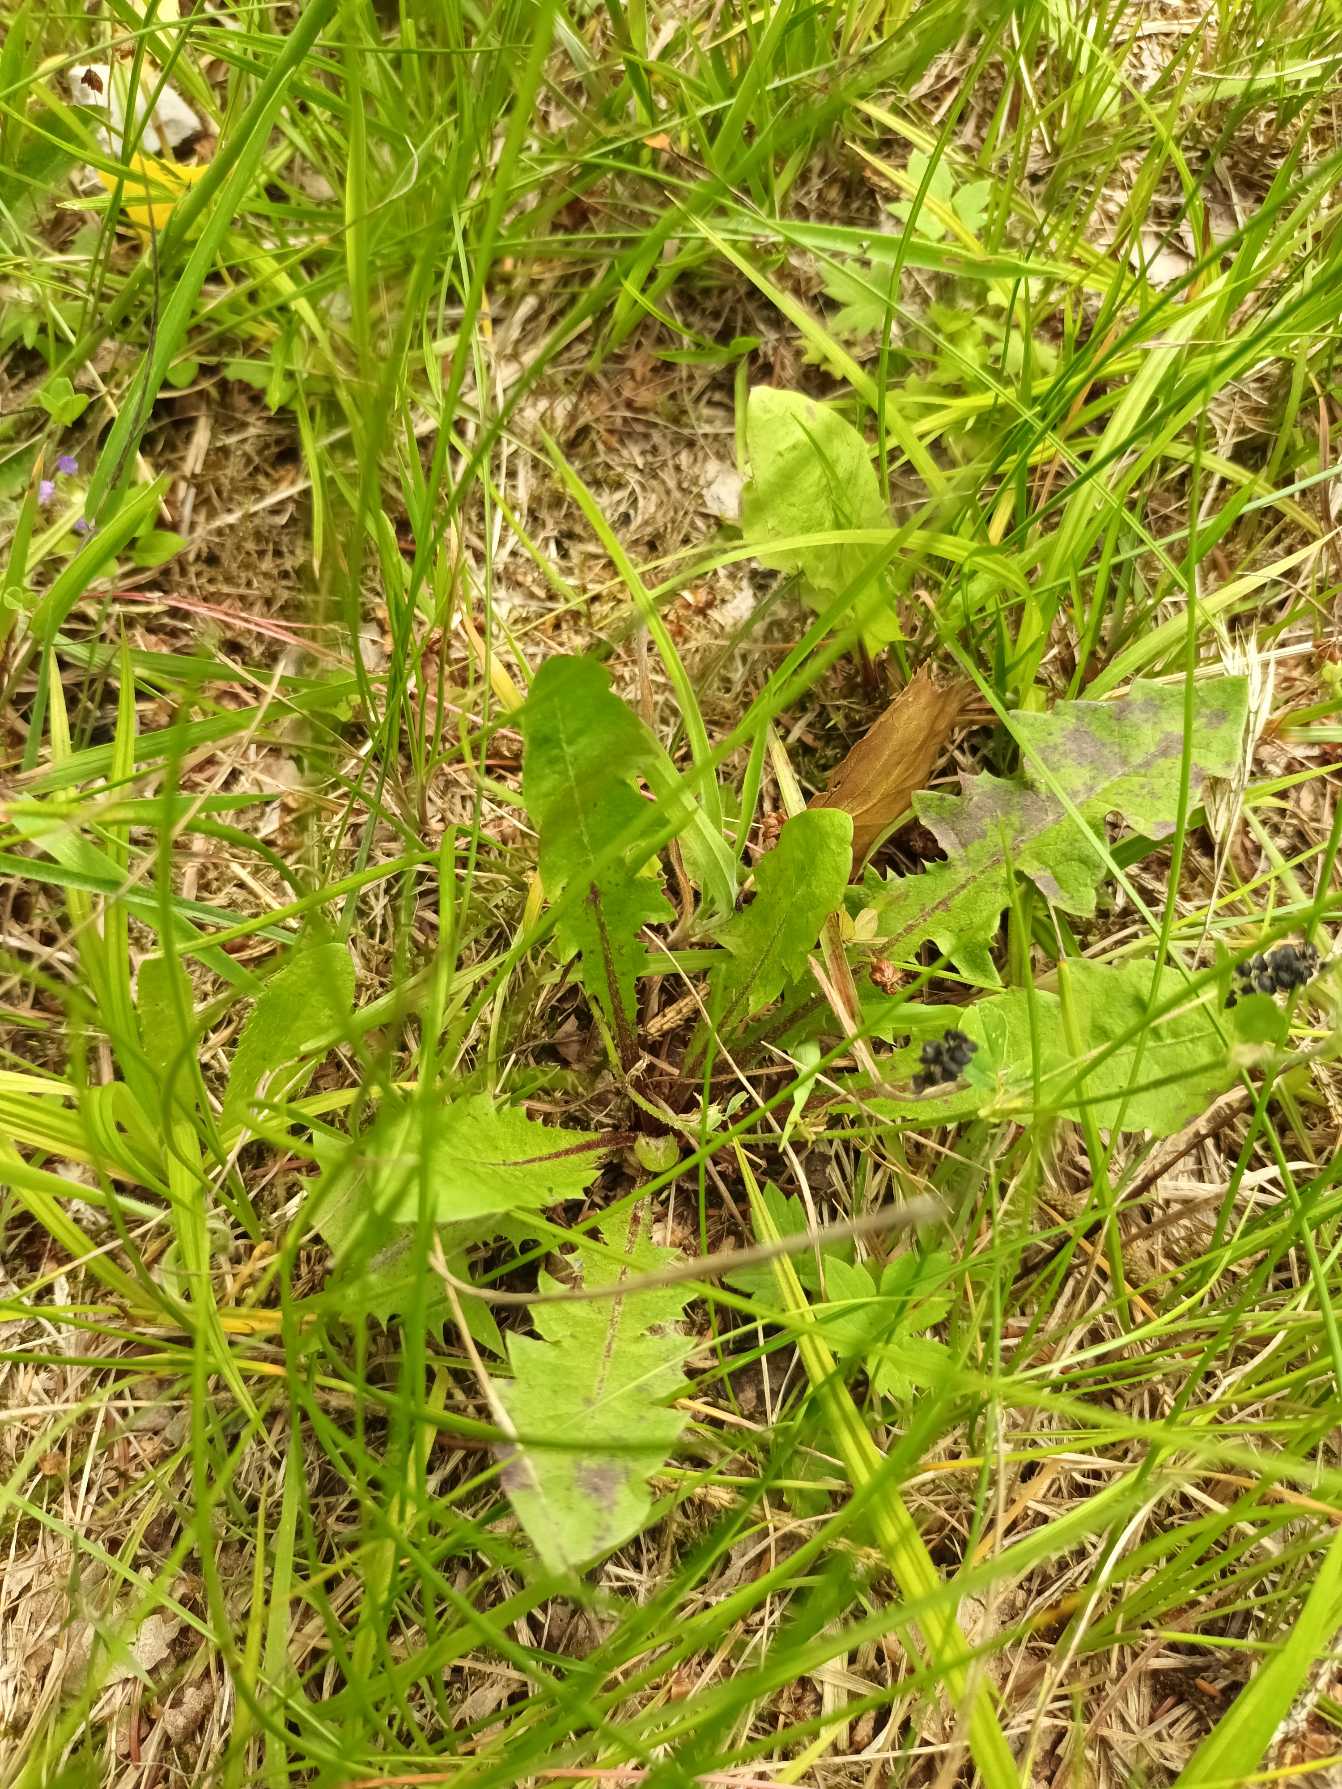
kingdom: Plantae
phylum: Tracheophyta
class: Magnoliopsida
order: Asterales
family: Asteraceae
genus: Taraxacum
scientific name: Taraxacum
